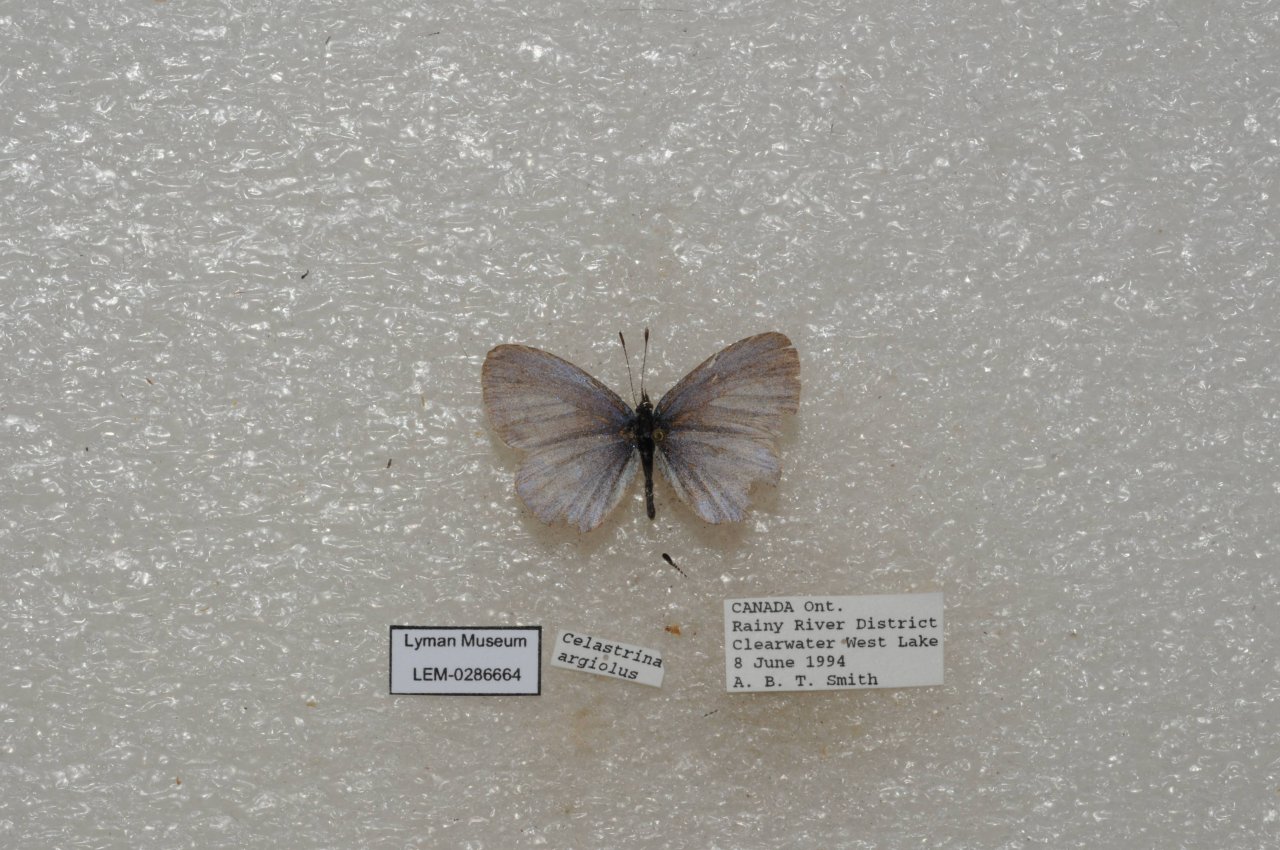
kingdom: Animalia
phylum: Arthropoda
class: Insecta
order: Lepidoptera
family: Lycaenidae
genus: Celastrina
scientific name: Celastrina lucia
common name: Northern Spring Azure
